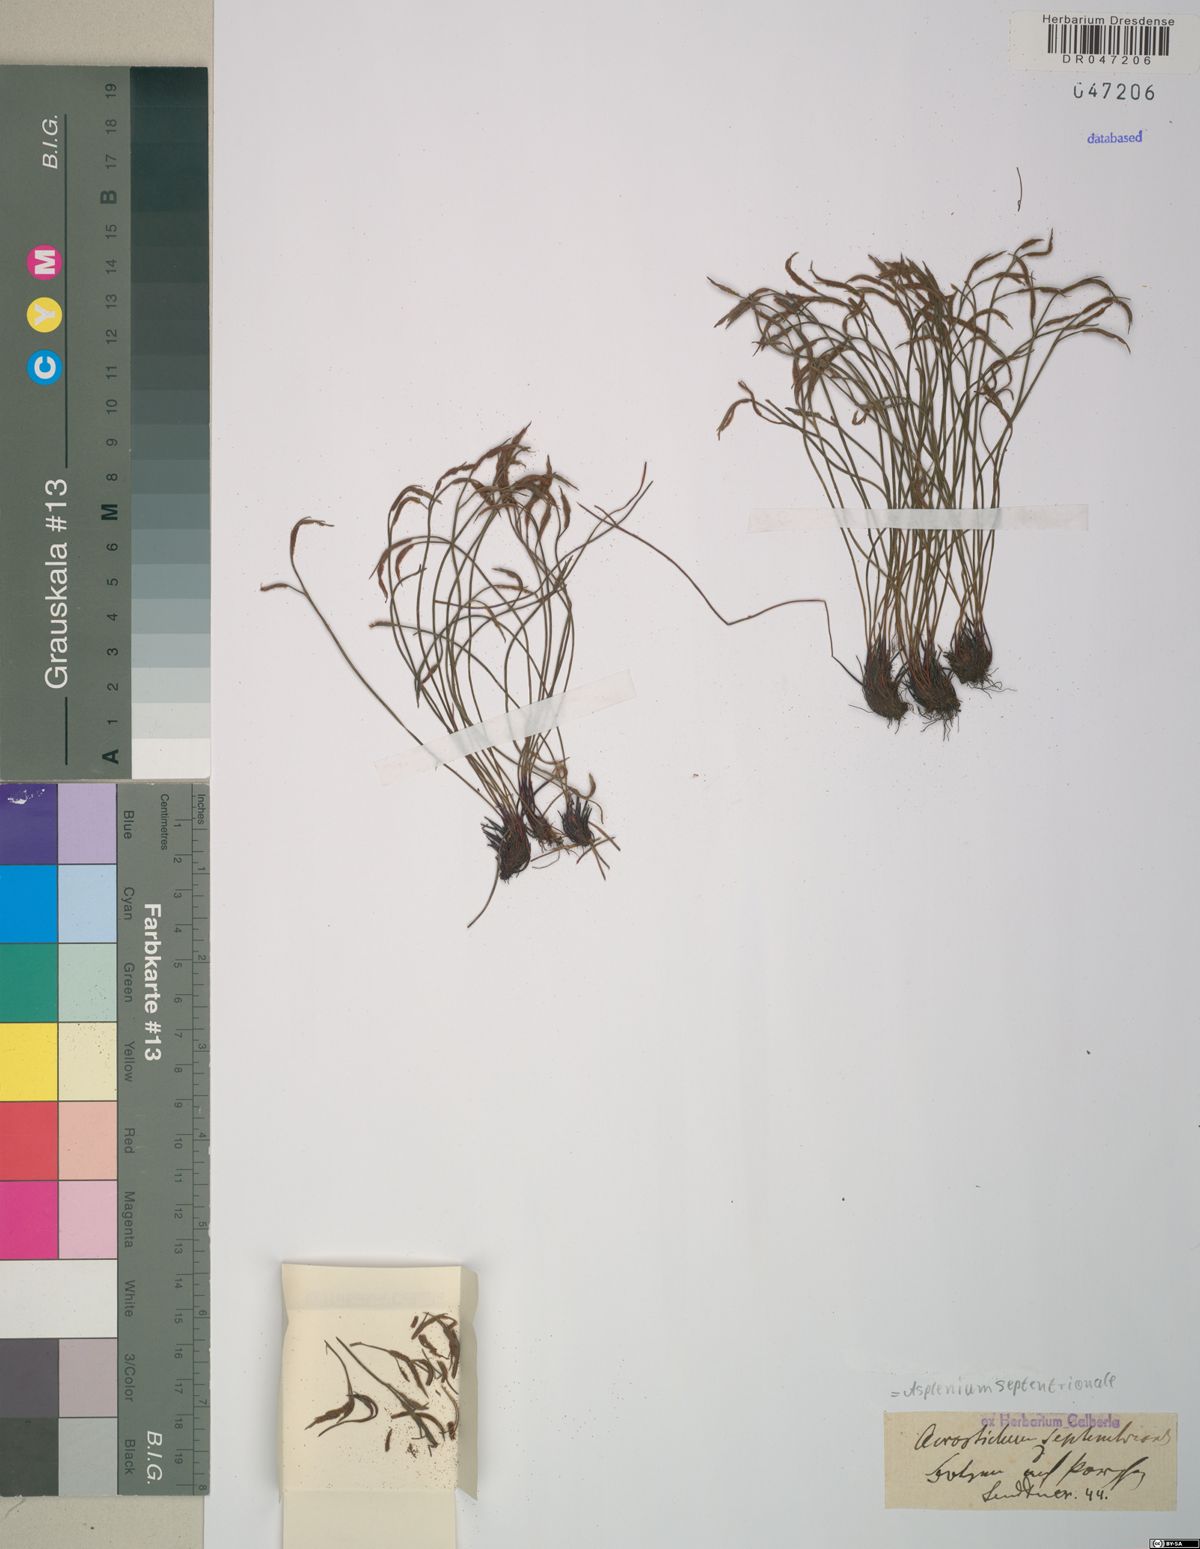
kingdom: Plantae
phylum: Tracheophyta
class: Polypodiopsida
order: Polypodiales
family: Aspleniaceae
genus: Asplenium
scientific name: Asplenium septentrionale
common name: Forked spleenwort
